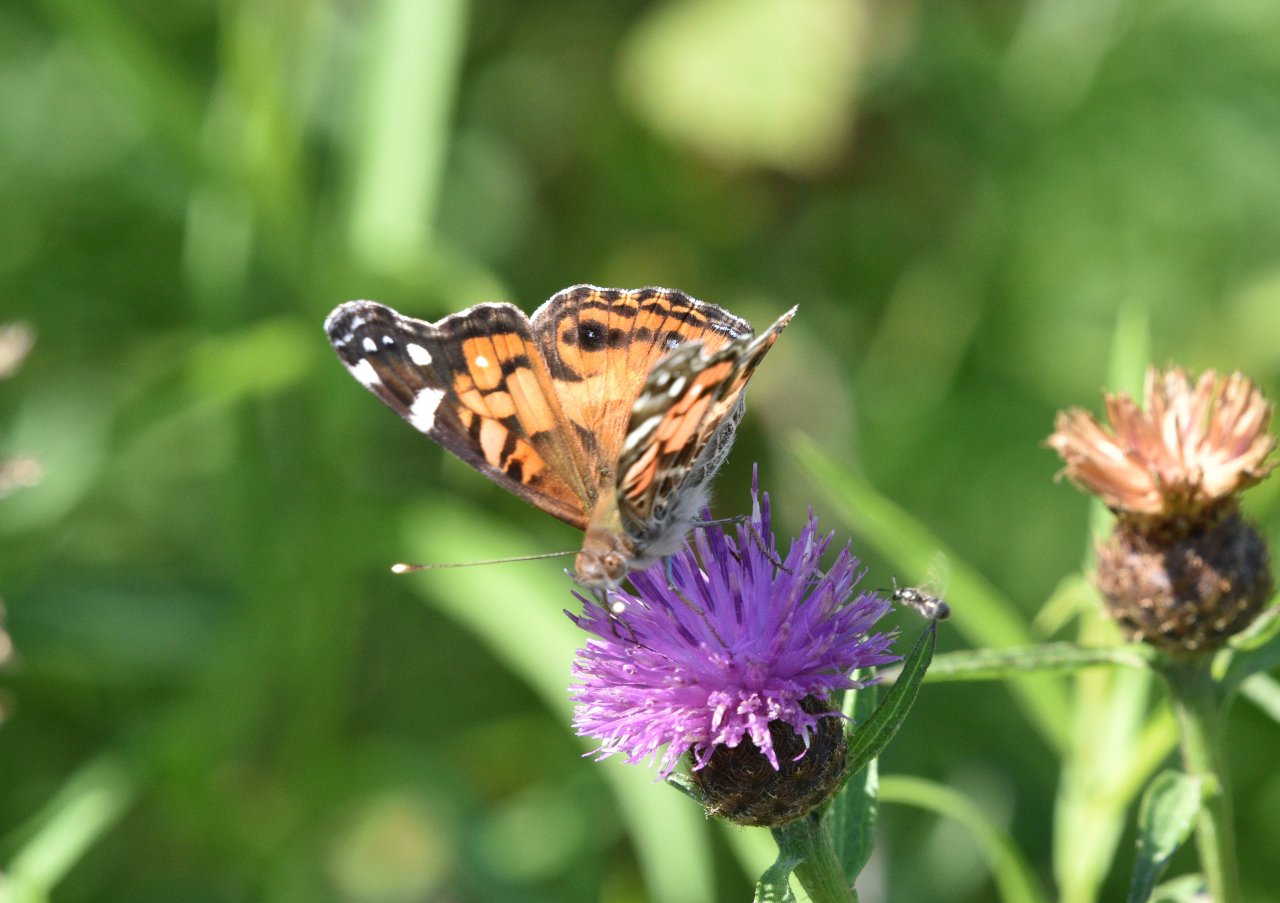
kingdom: Animalia
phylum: Arthropoda
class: Insecta
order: Lepidoptera
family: Nymphalidae
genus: Vanessa
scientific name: Vanessa virginiensis
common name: American Lady
